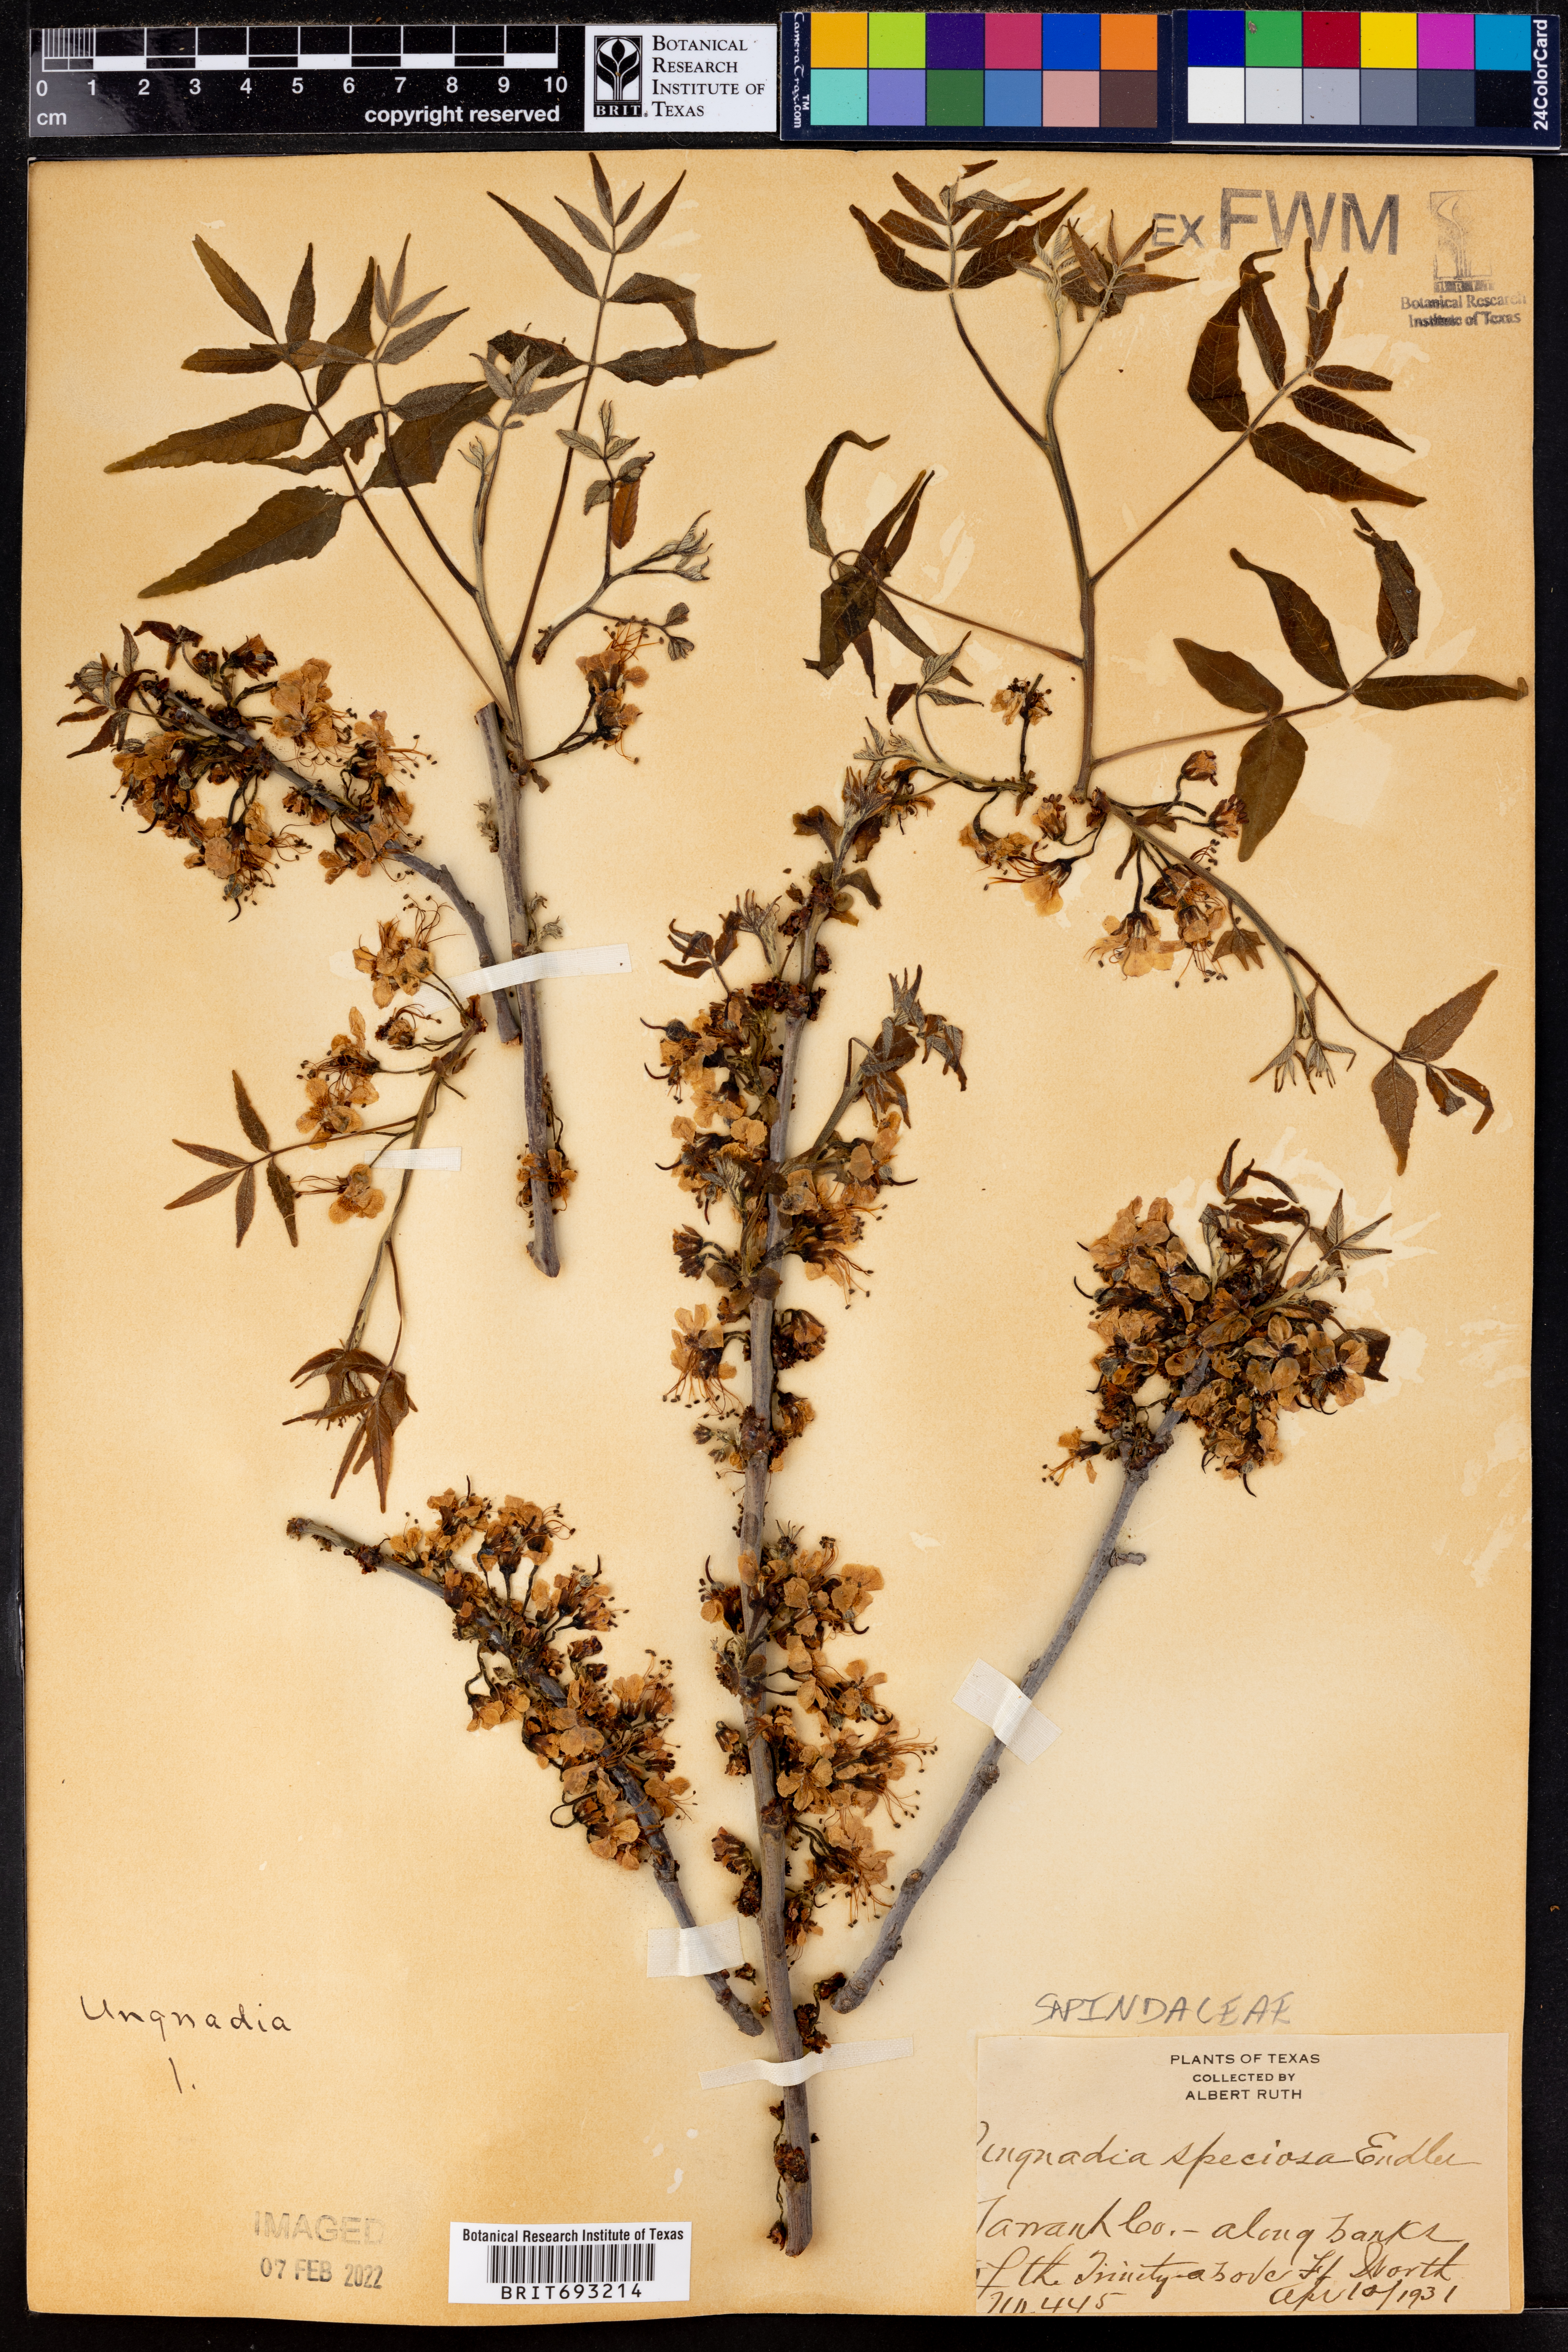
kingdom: Plantae
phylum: Tracheophyta
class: Magnoliopsida
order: Sapindales
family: Sapindaceae
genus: Ungnadia
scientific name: Ungnadia speciosa
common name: Texas-buckeye
